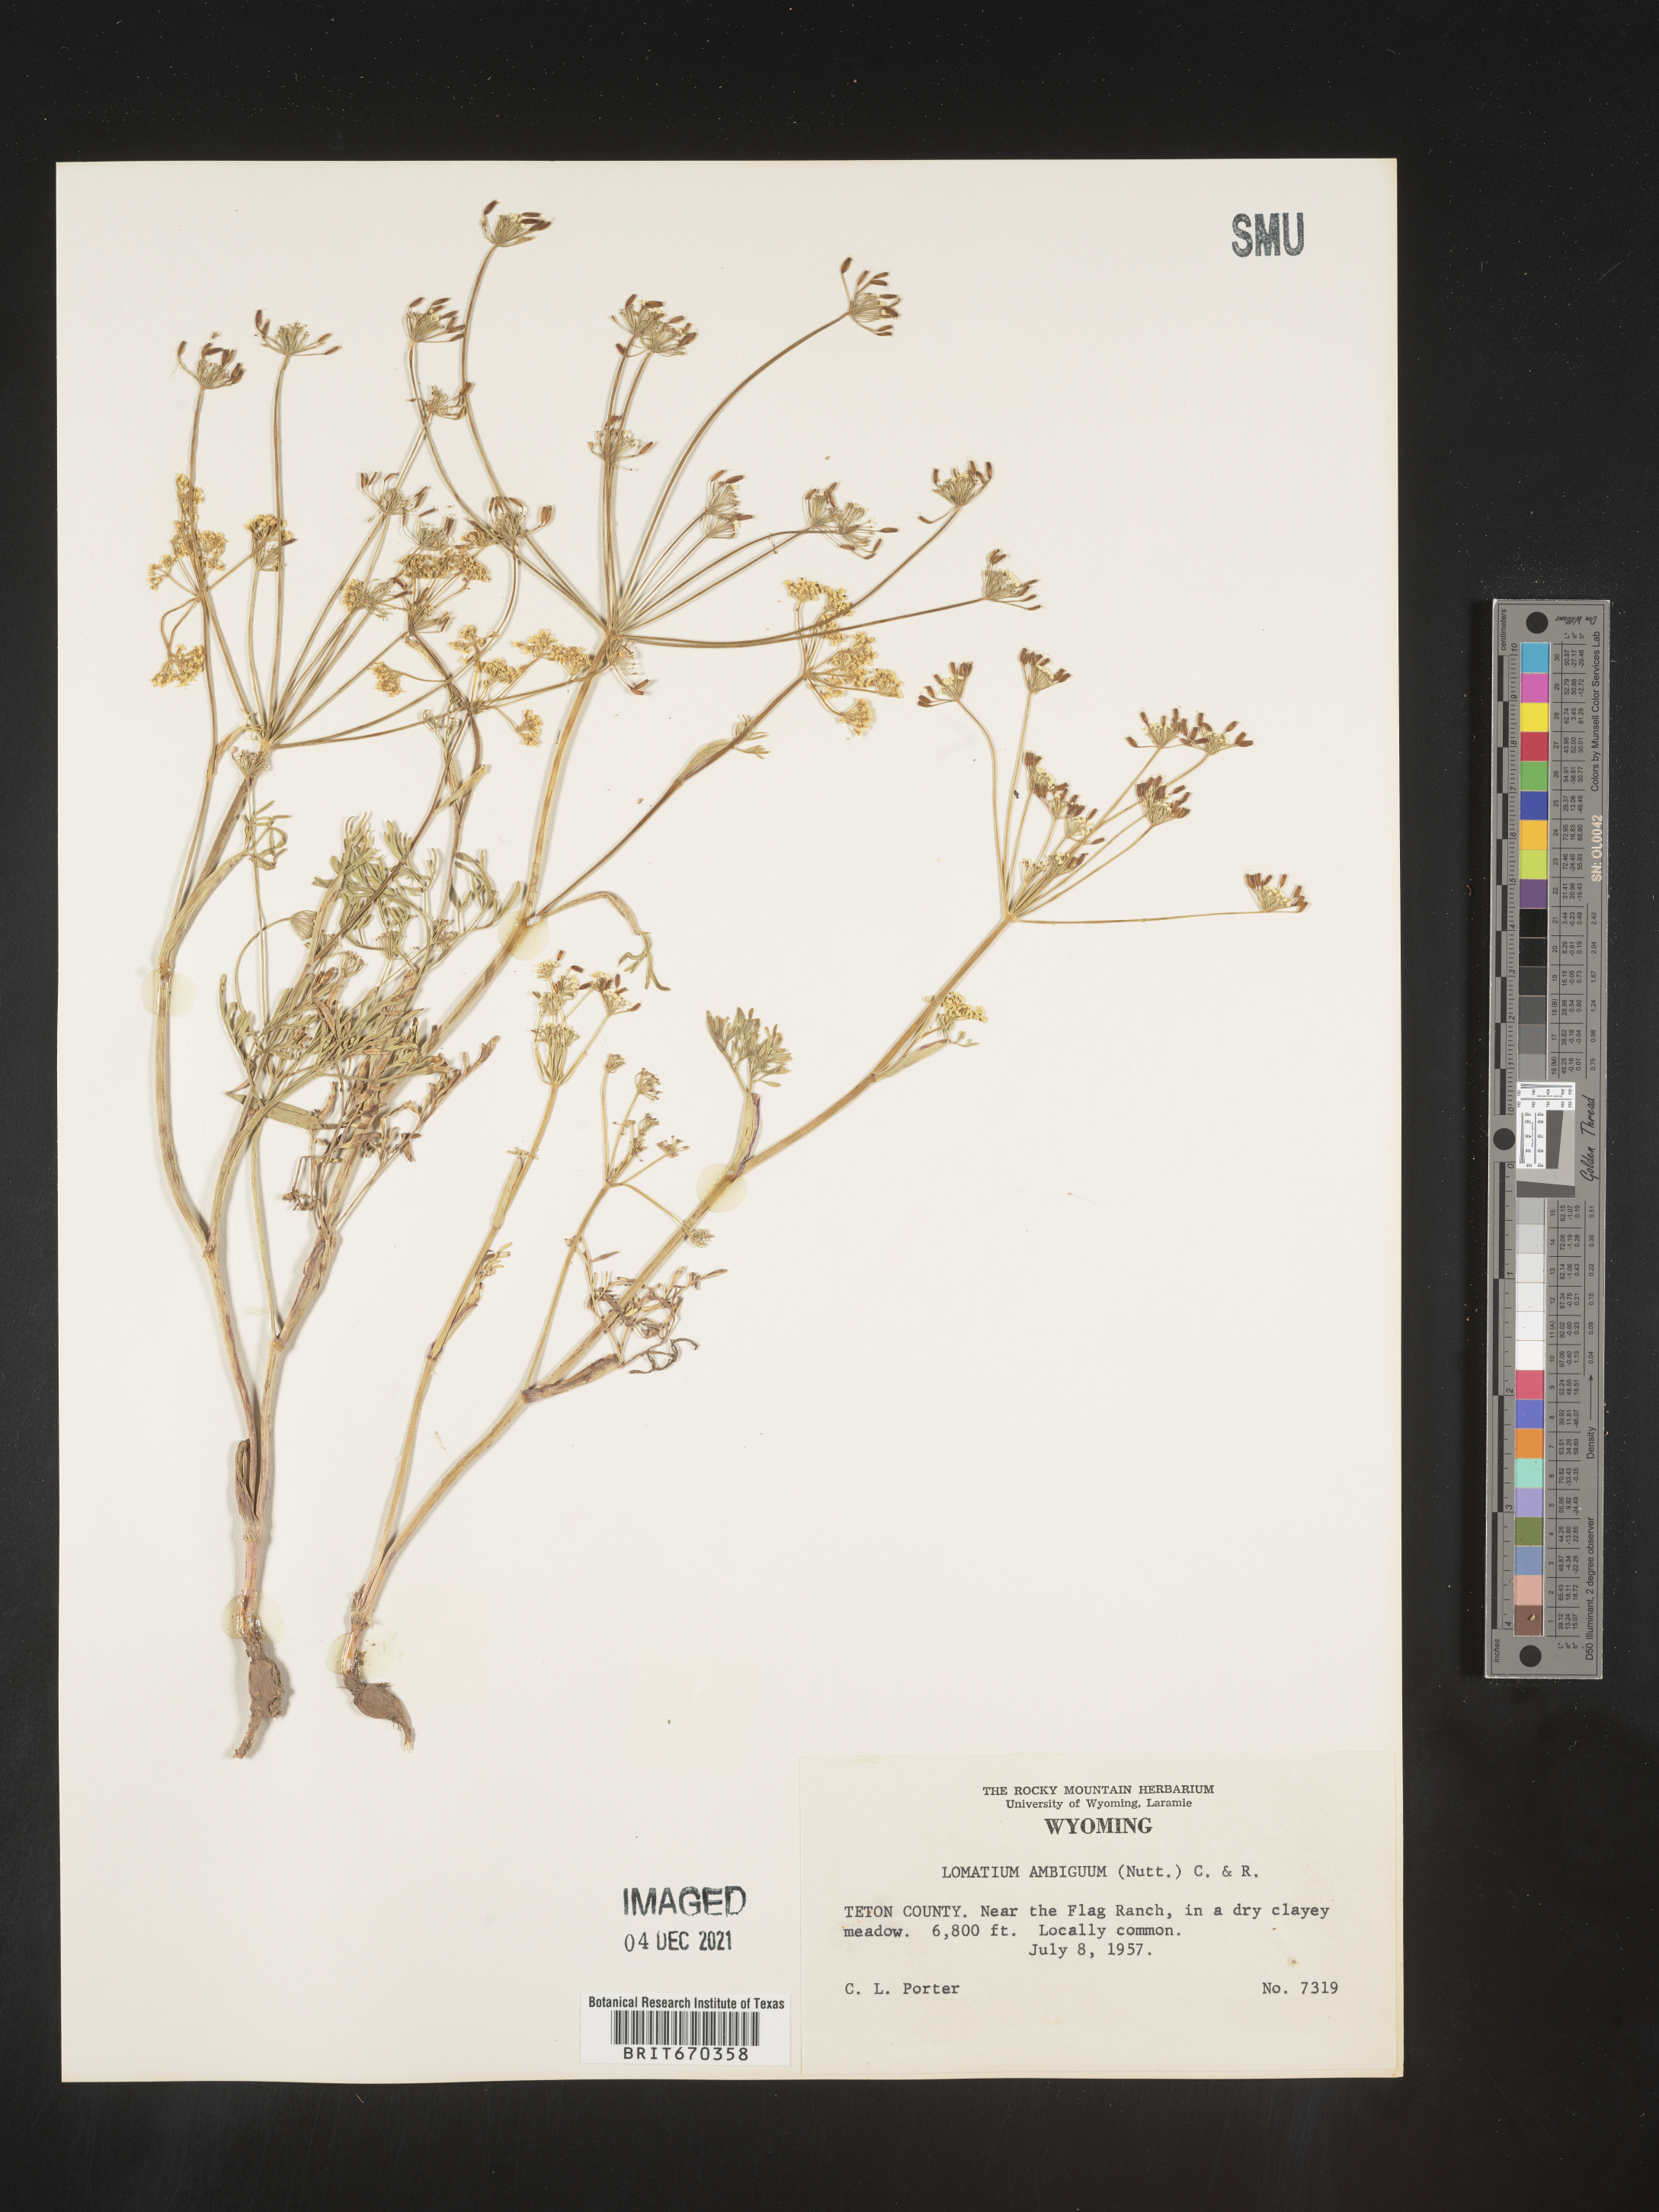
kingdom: Plantae
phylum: Tracheophyta
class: Magnoliopsida
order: Apiales
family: Apiaceae
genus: Lomatium
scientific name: Lomatium ambiguum
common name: Lacy lomatium
